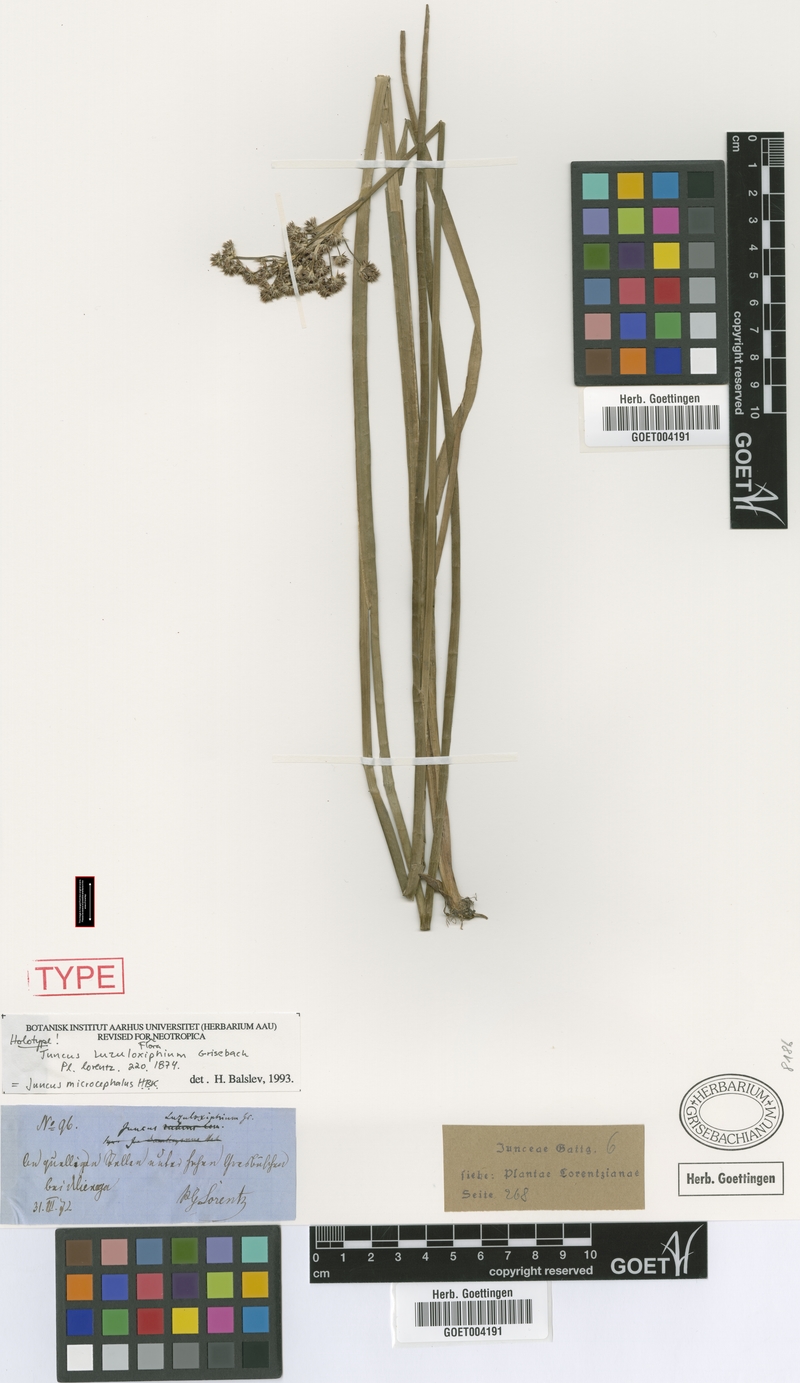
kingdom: Plantae
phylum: Tracheophyta
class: Liliopsida
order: Poales
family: Juncaceae
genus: Juncus
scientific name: Juncus microcephalus
